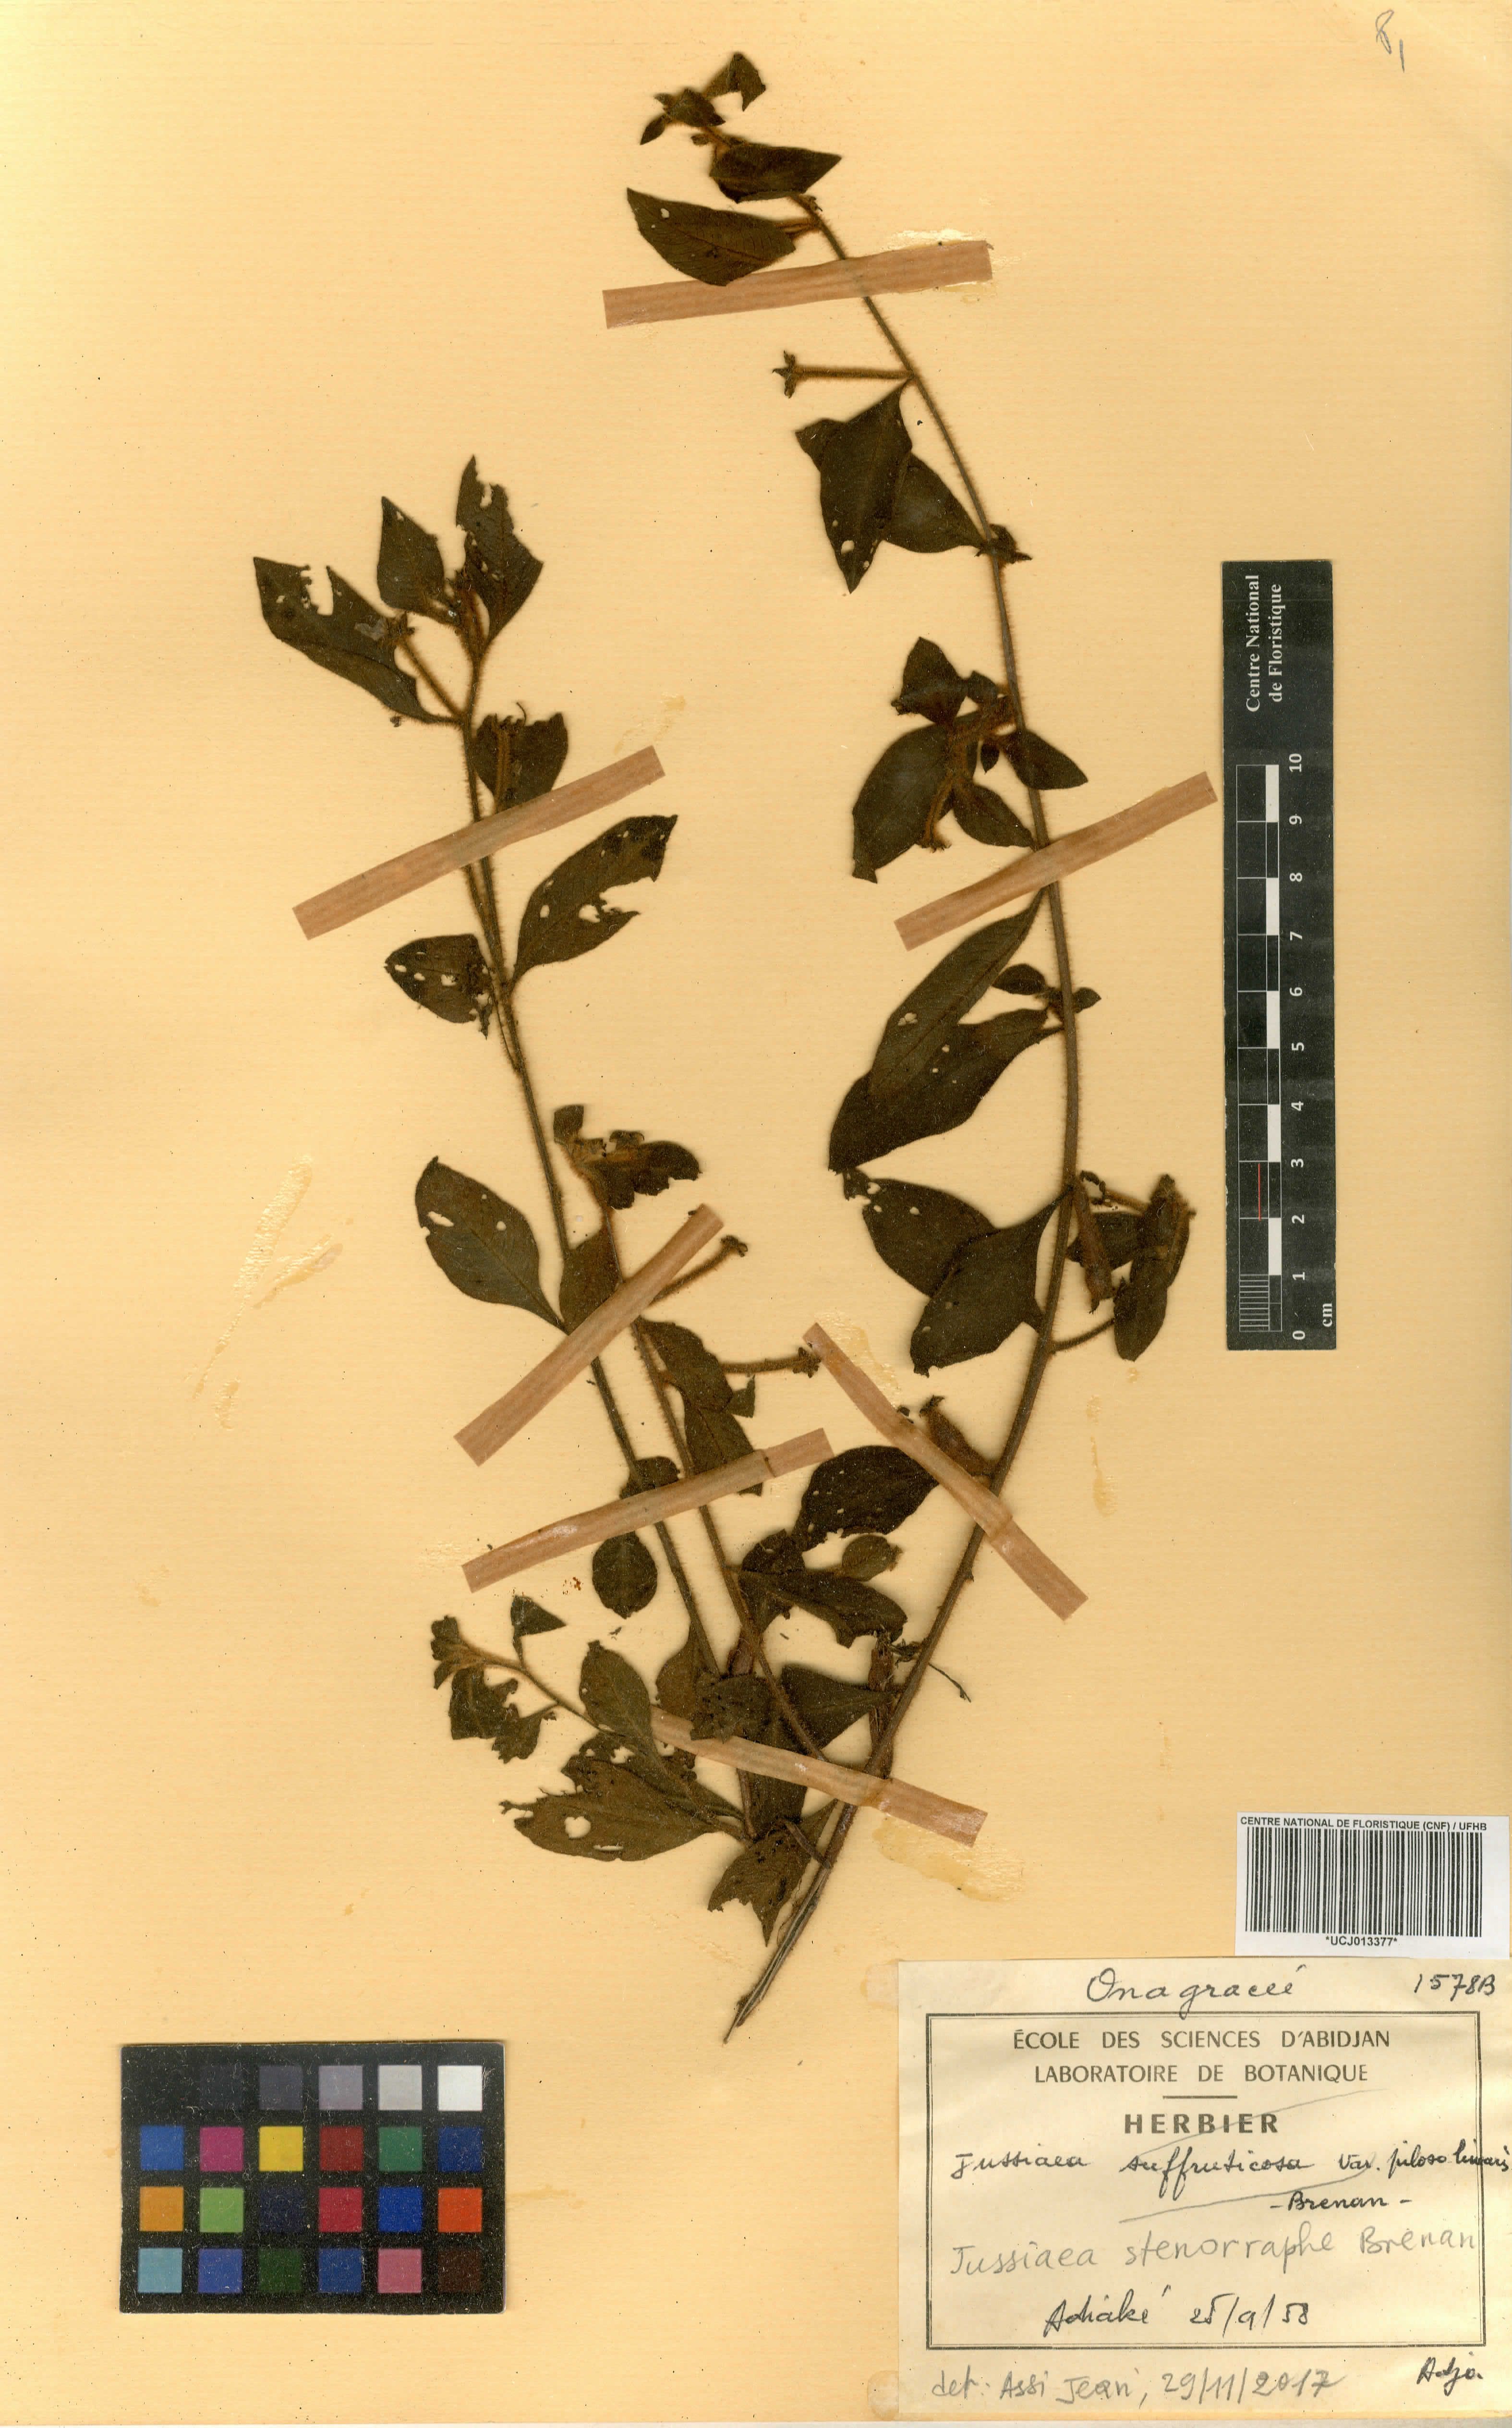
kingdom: Plantae
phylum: Tracheophyta
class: Magnoliopsida
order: Myrtales
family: Onagraceae
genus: Ludwigia
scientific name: Ludwigia stenorraphe
